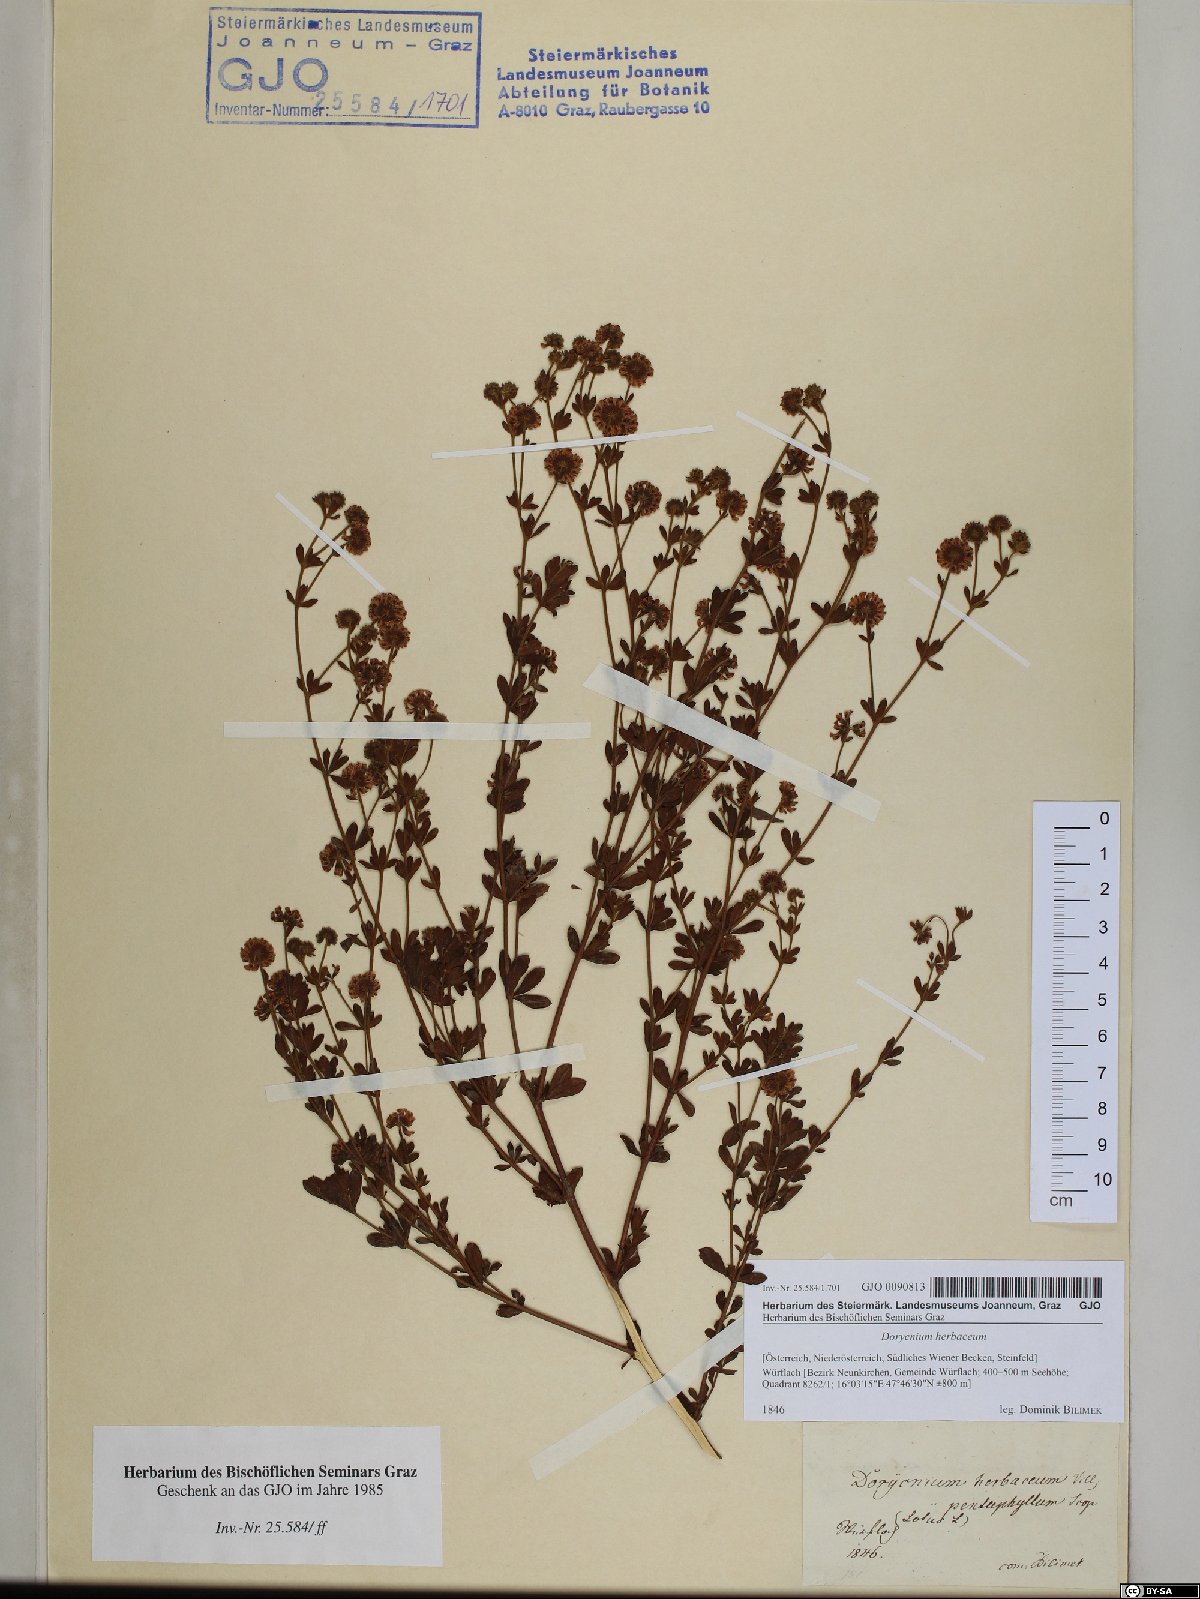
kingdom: Plantae
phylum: Tracheophyta
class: Magnoliopsida
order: Fabales
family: Fabaceae
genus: Lotus
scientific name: Lotus herbaceus
